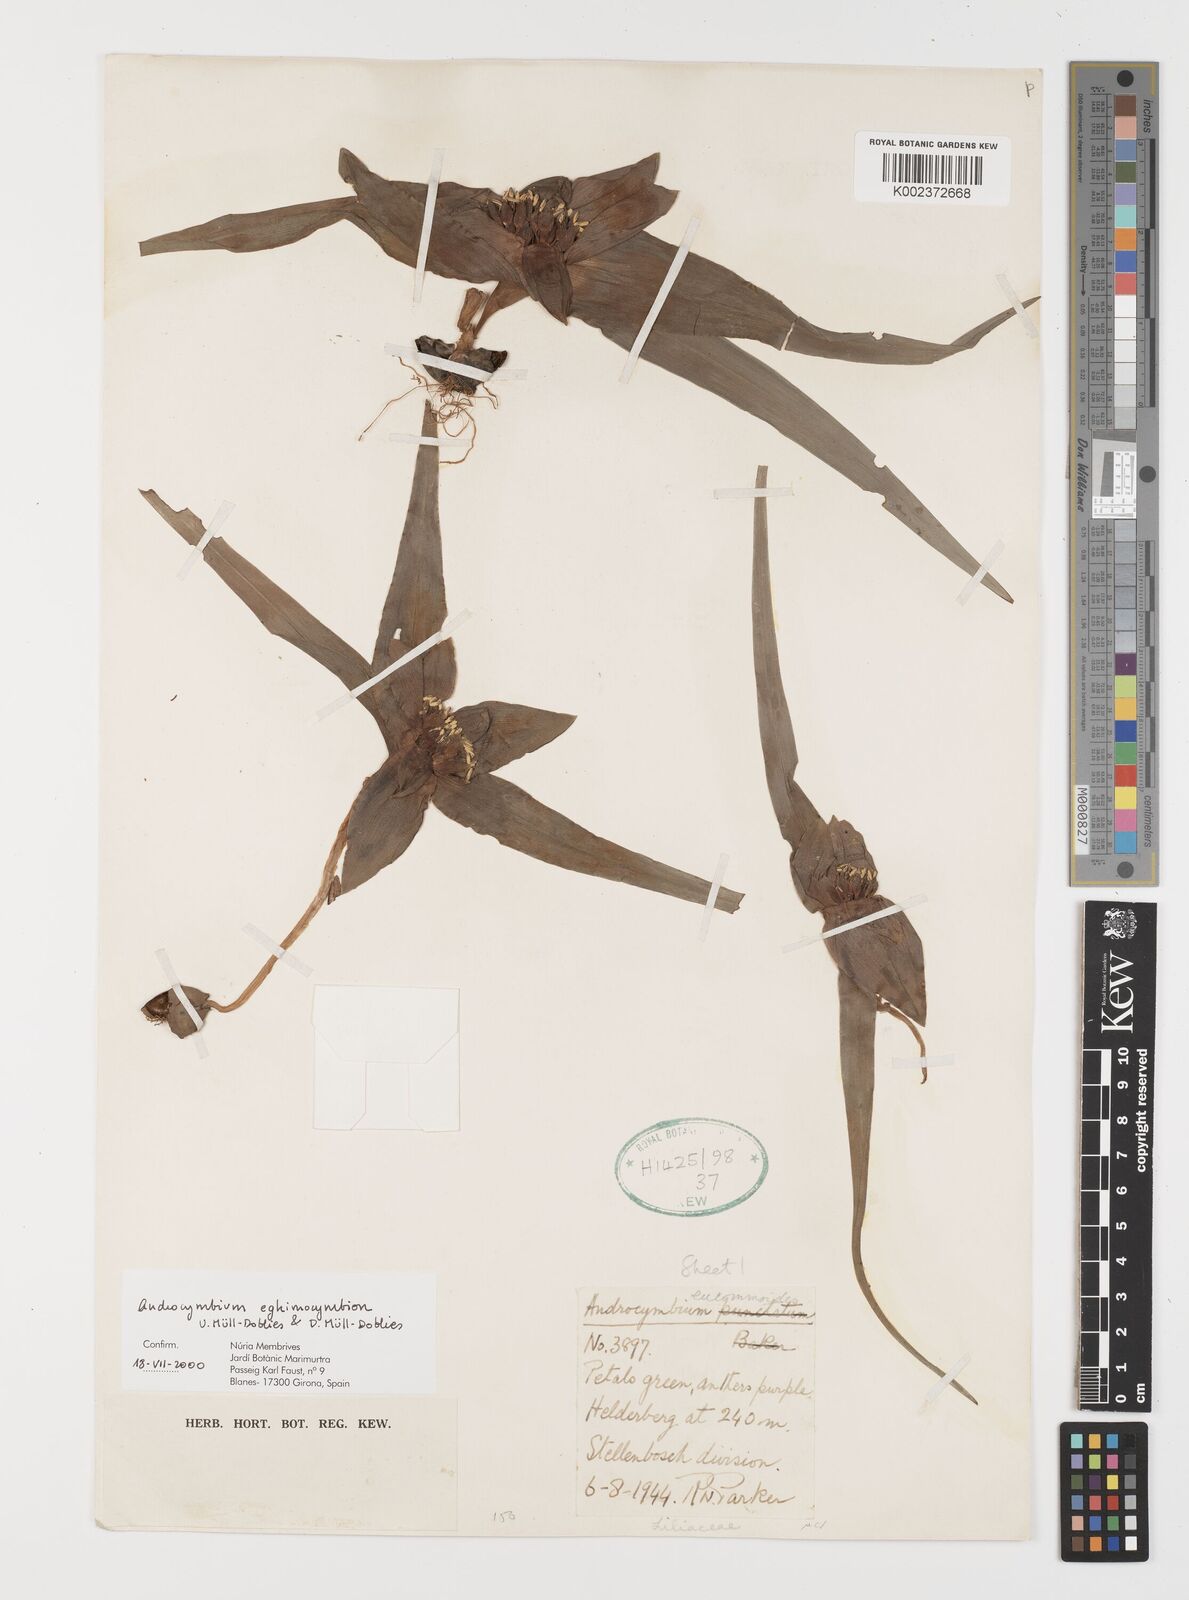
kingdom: Plantae
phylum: Tracheophyta
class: Liliopsida
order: Liliales
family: Colchicaceae
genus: Colchicum
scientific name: Colchicum eghimocymbion
